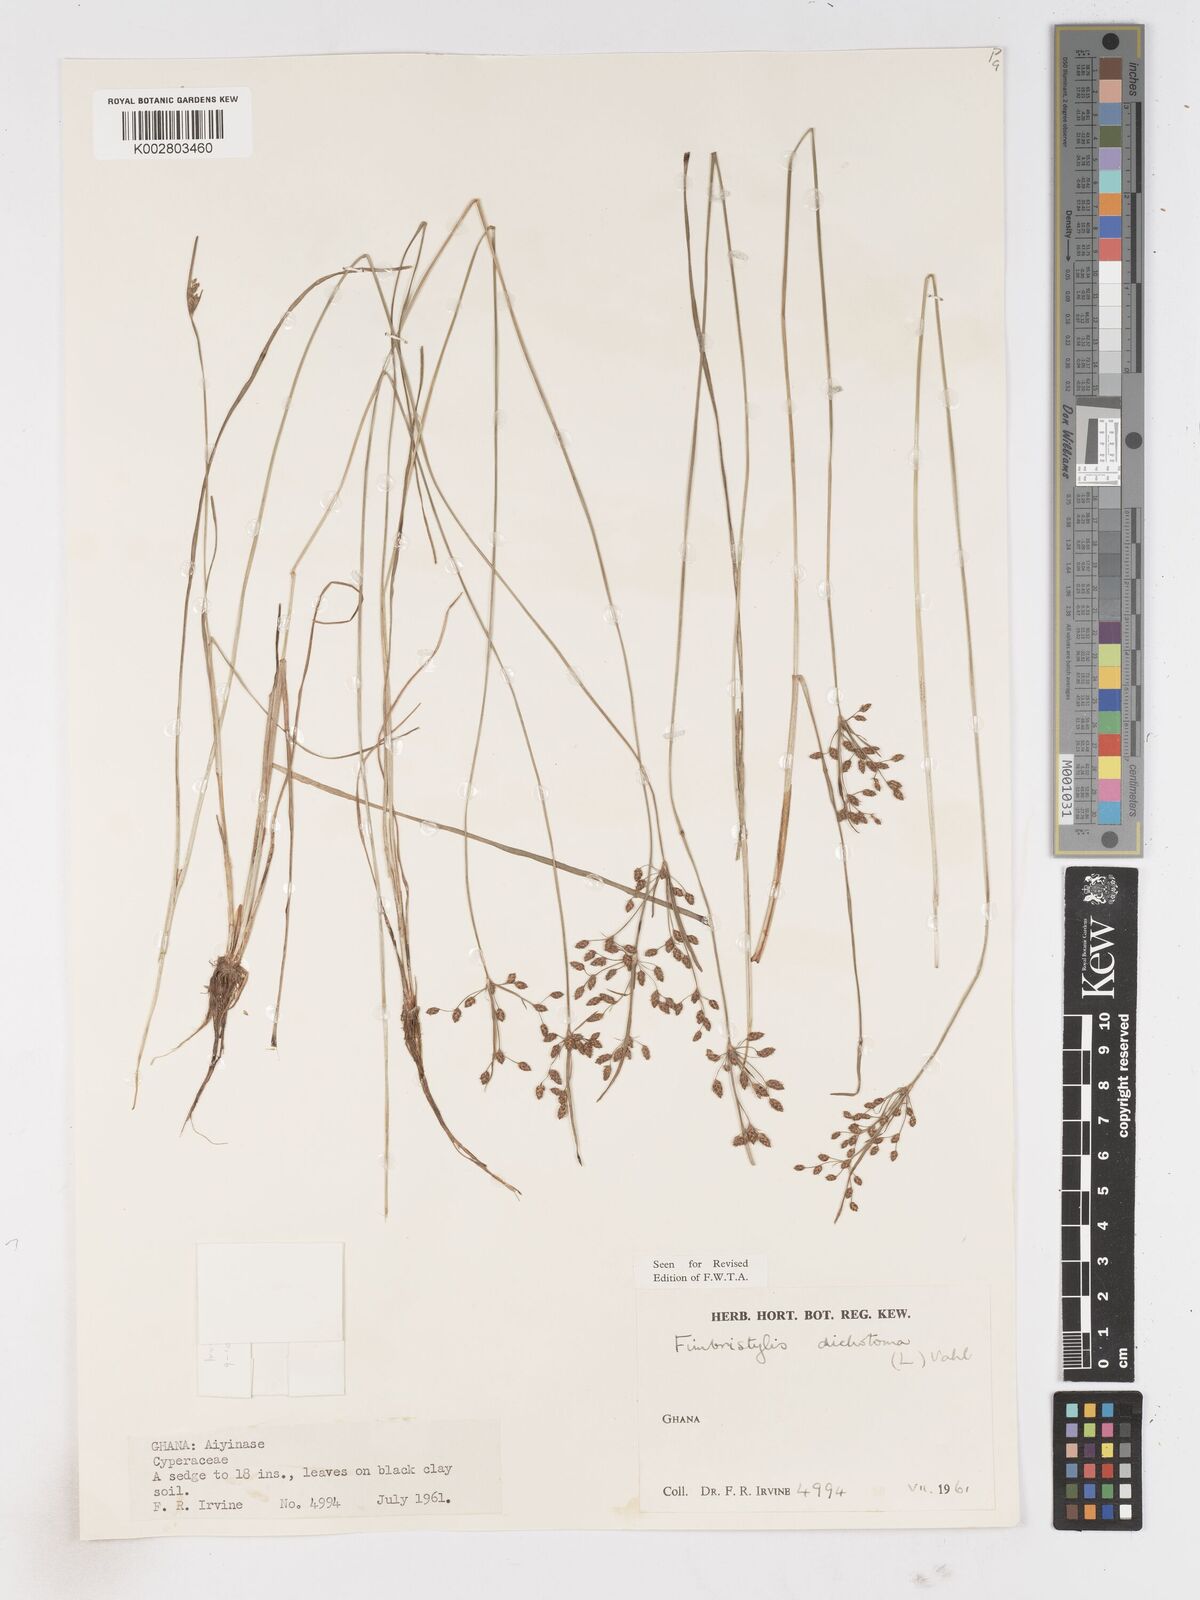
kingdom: Plantae
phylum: Tracheophyta
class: Liliopsida
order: Poales
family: Cyperaceae
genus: Fimbristylis
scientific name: Fimbristylis dichotoma
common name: Forked fimbry
